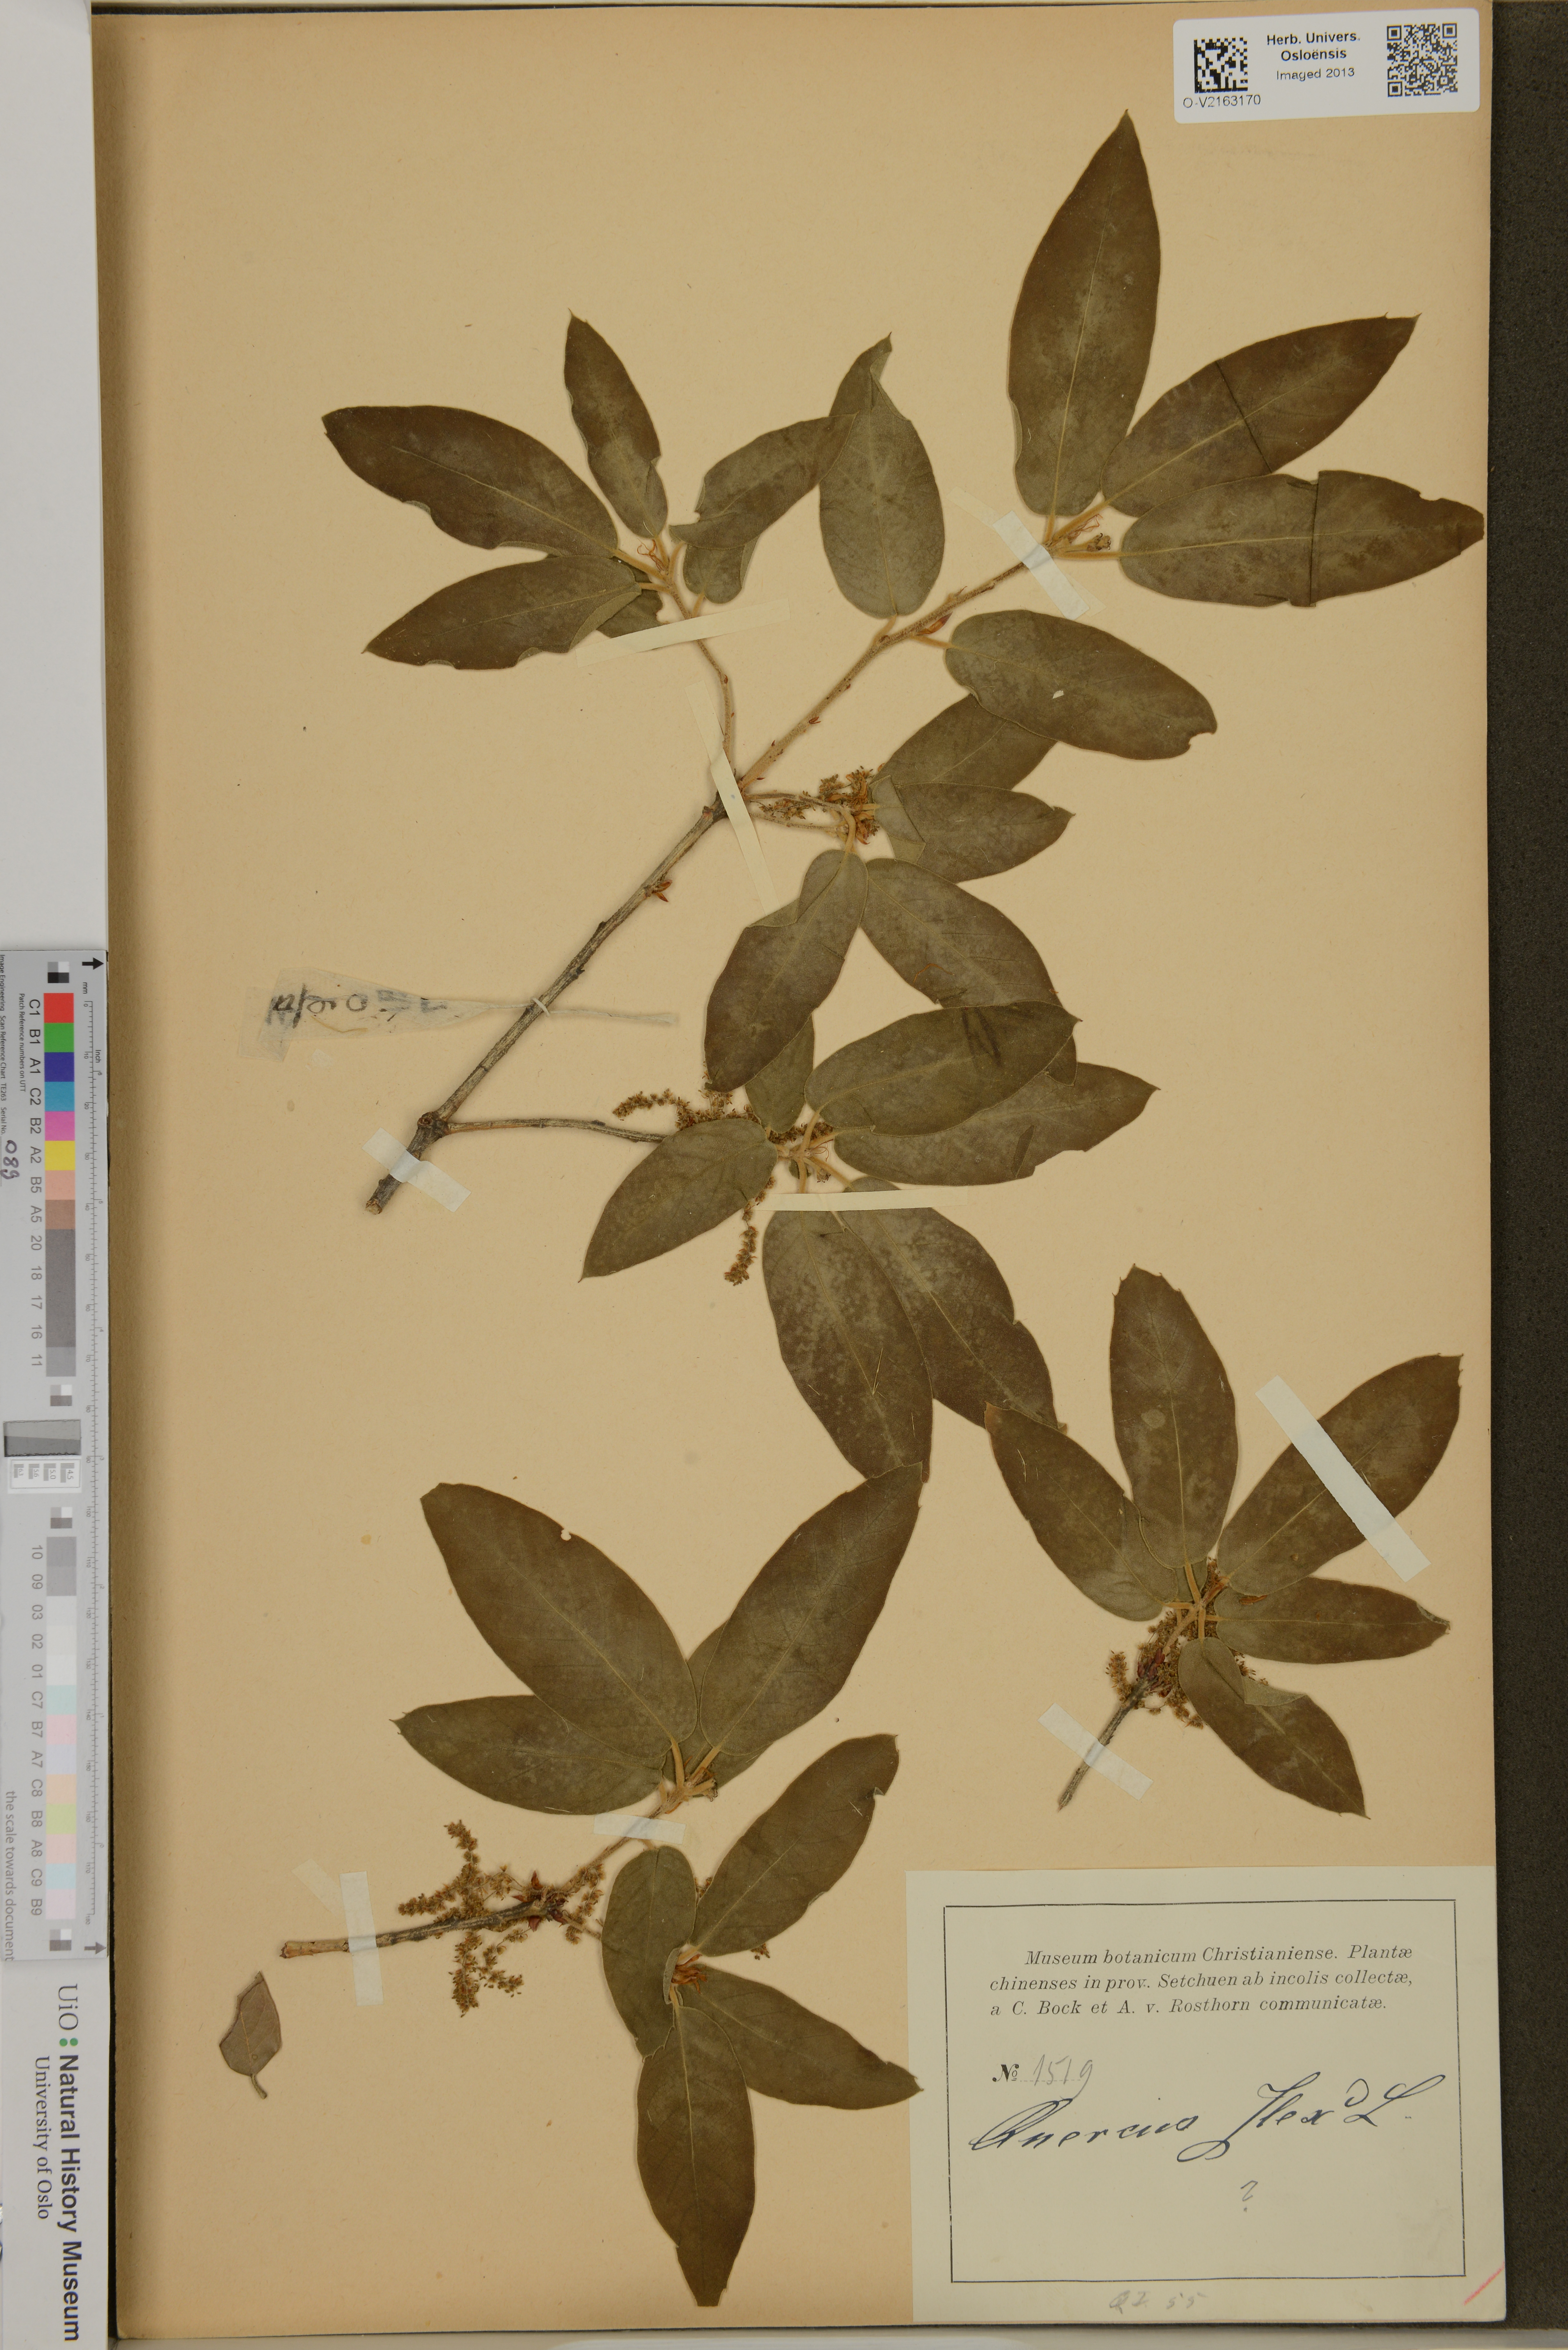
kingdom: Plantae
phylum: Tracheophyta
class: Magnoliopsida
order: Fagales
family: Fagaceae
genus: Quercus
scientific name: Quercus macrocalyx
